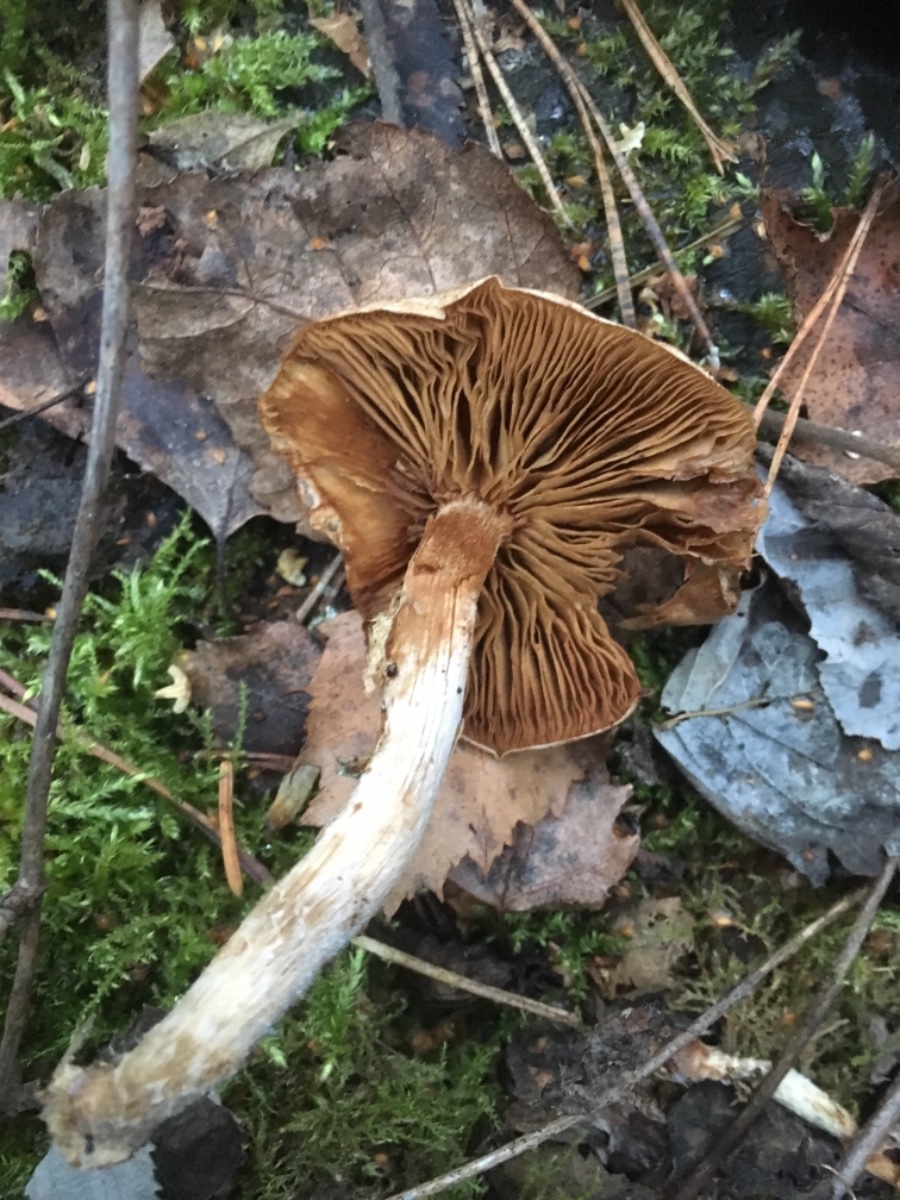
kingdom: Fungi
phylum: Basidiomycota
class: Agaricomycetes
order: Agaricales
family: Cortinariaceae
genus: Cortinarius
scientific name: Cortinarius
